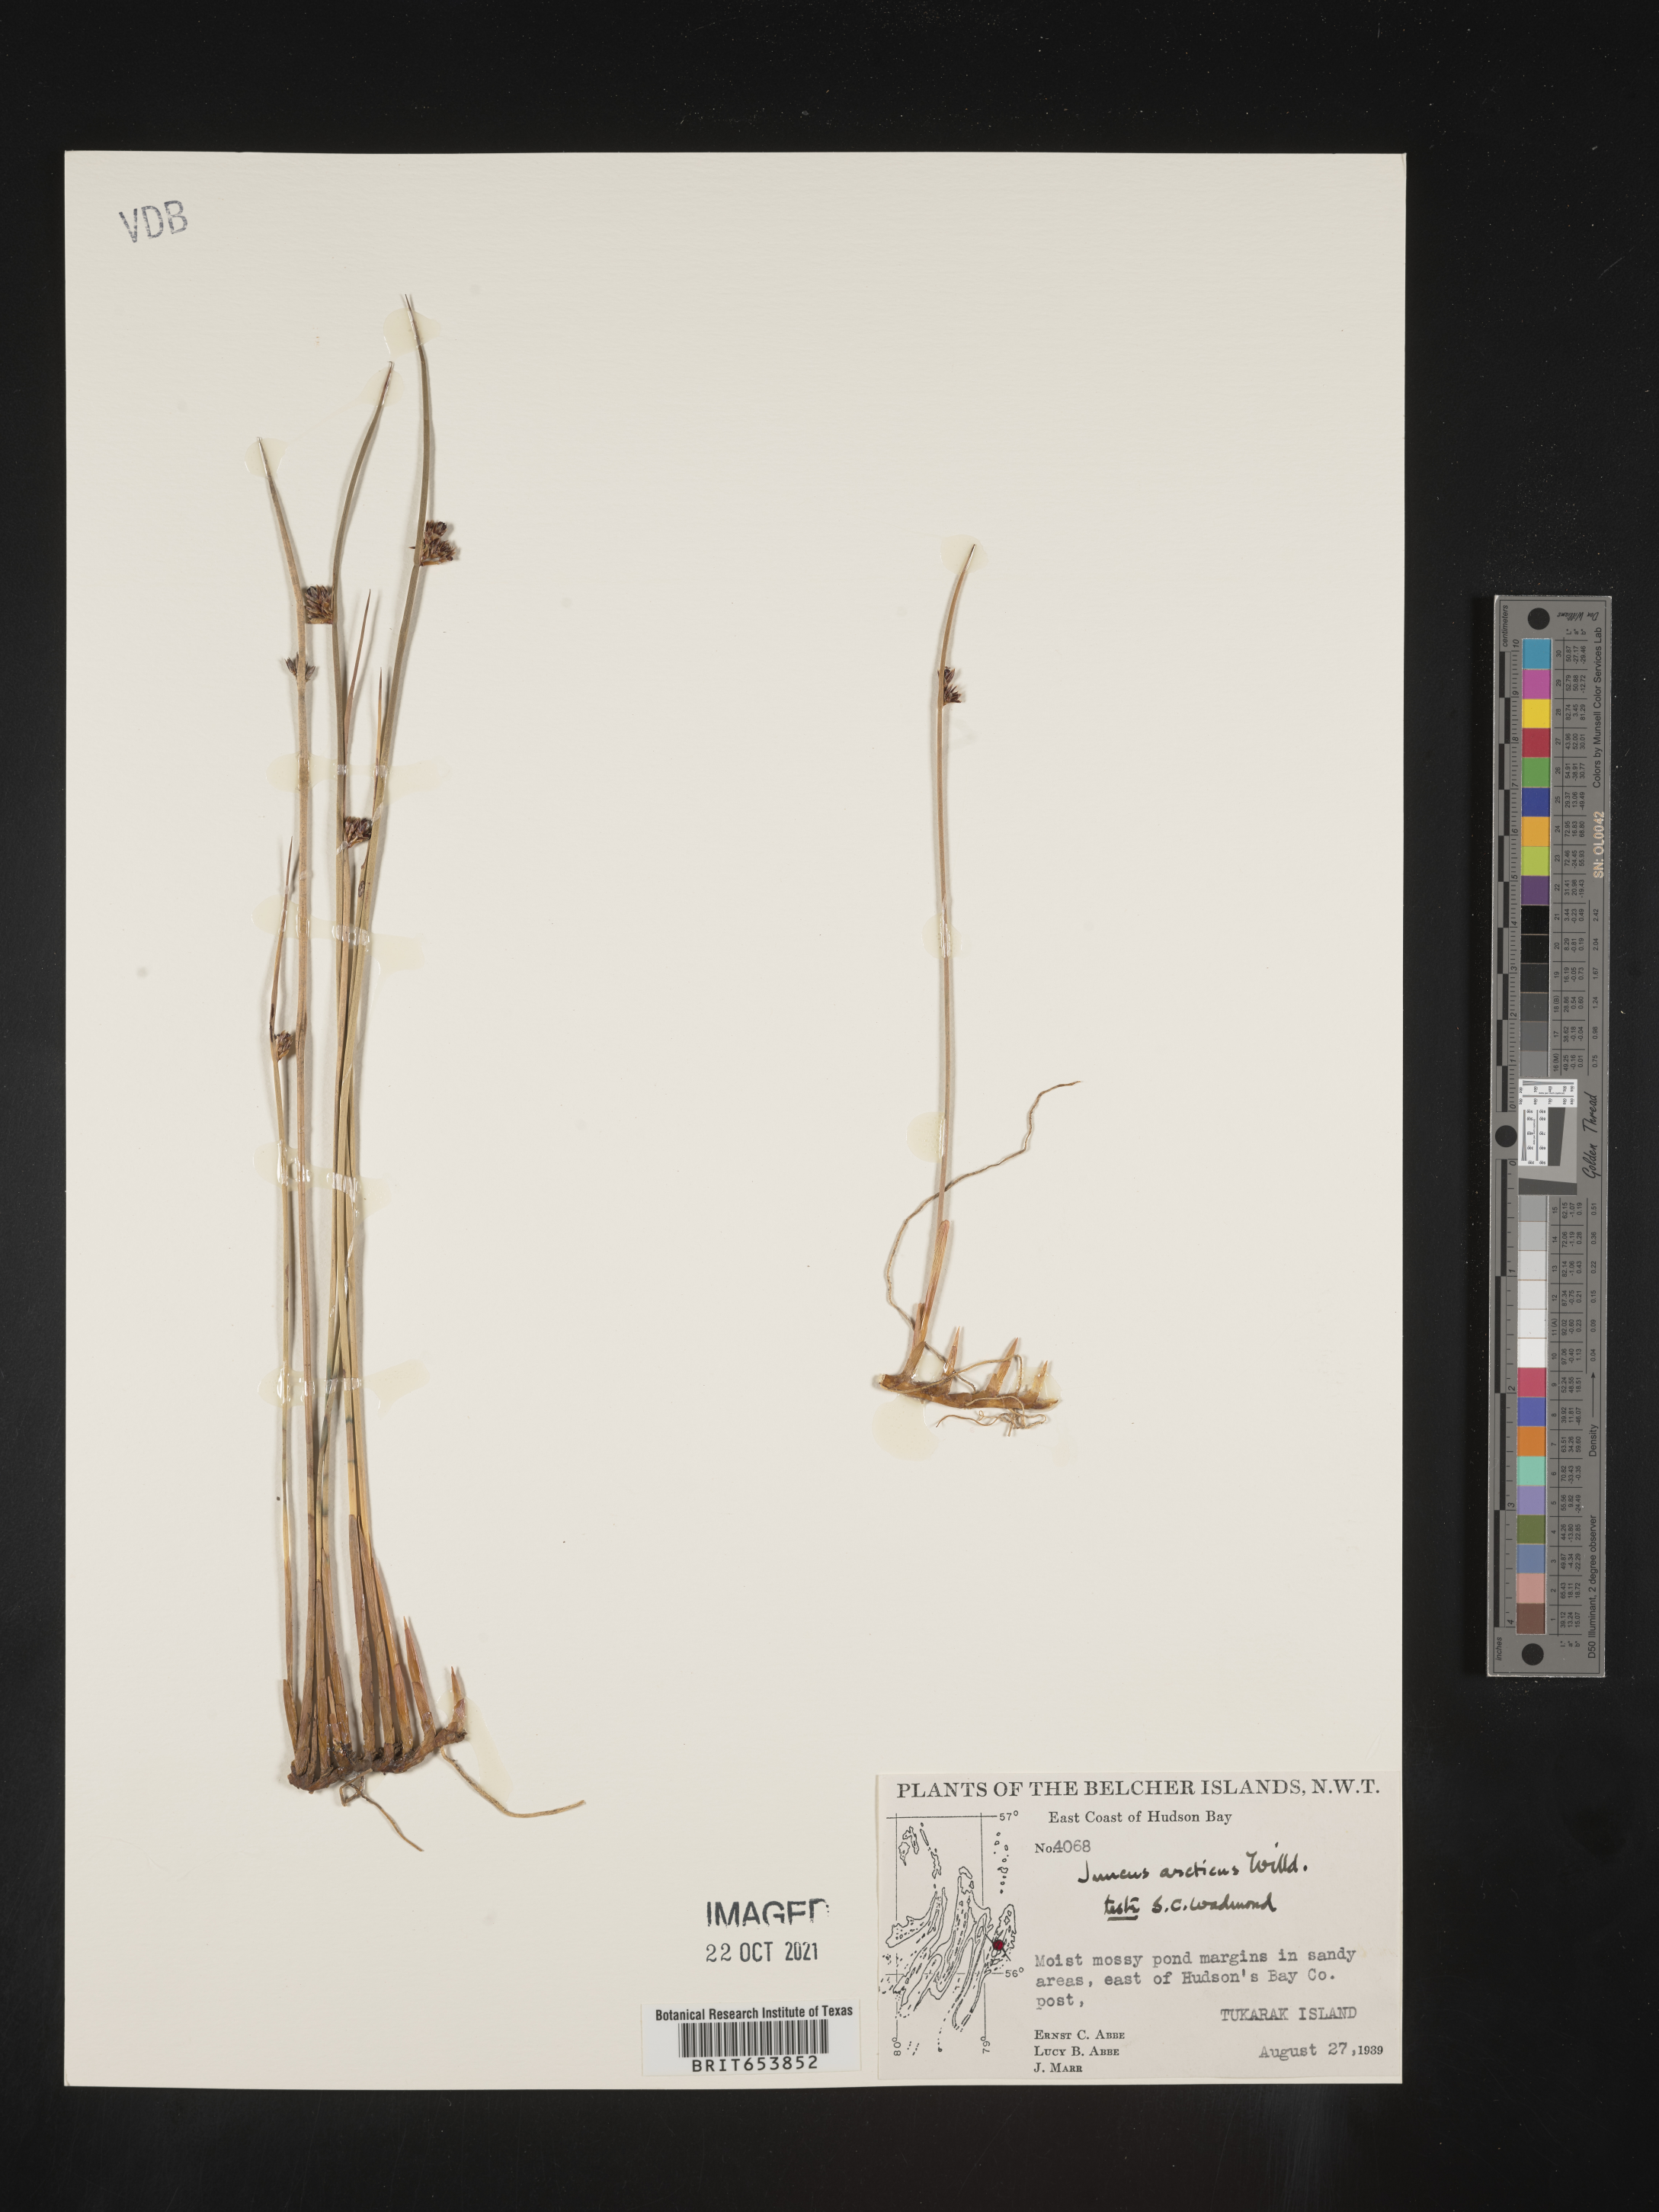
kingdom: Plantae
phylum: Tracheophyta
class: Liliopsida
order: Poales
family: Juncaceae
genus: Juncus
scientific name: Juncus arcticus
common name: Arctic rush
